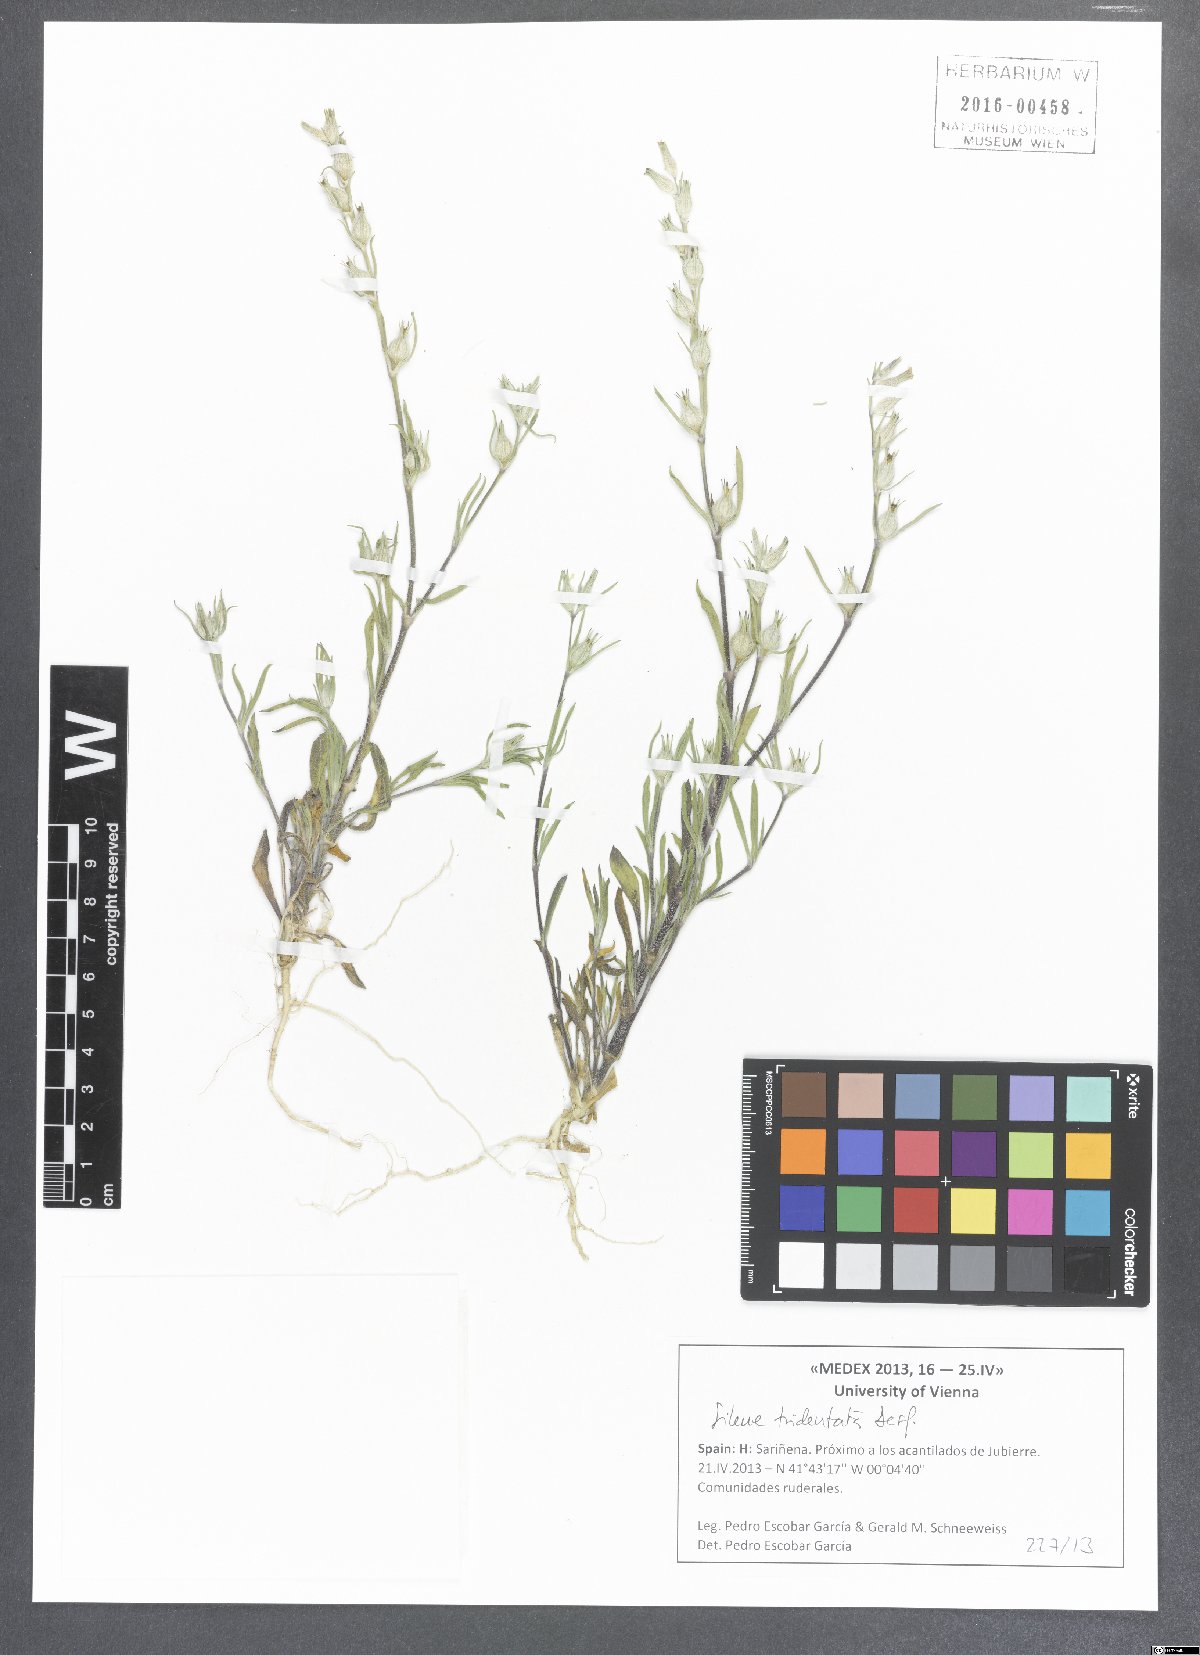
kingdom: Plantae
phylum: Tracheophyta
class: Magnoliopsida
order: Caryophyllales
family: Caryophyllaceae
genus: Silene
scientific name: Silene tridentata
